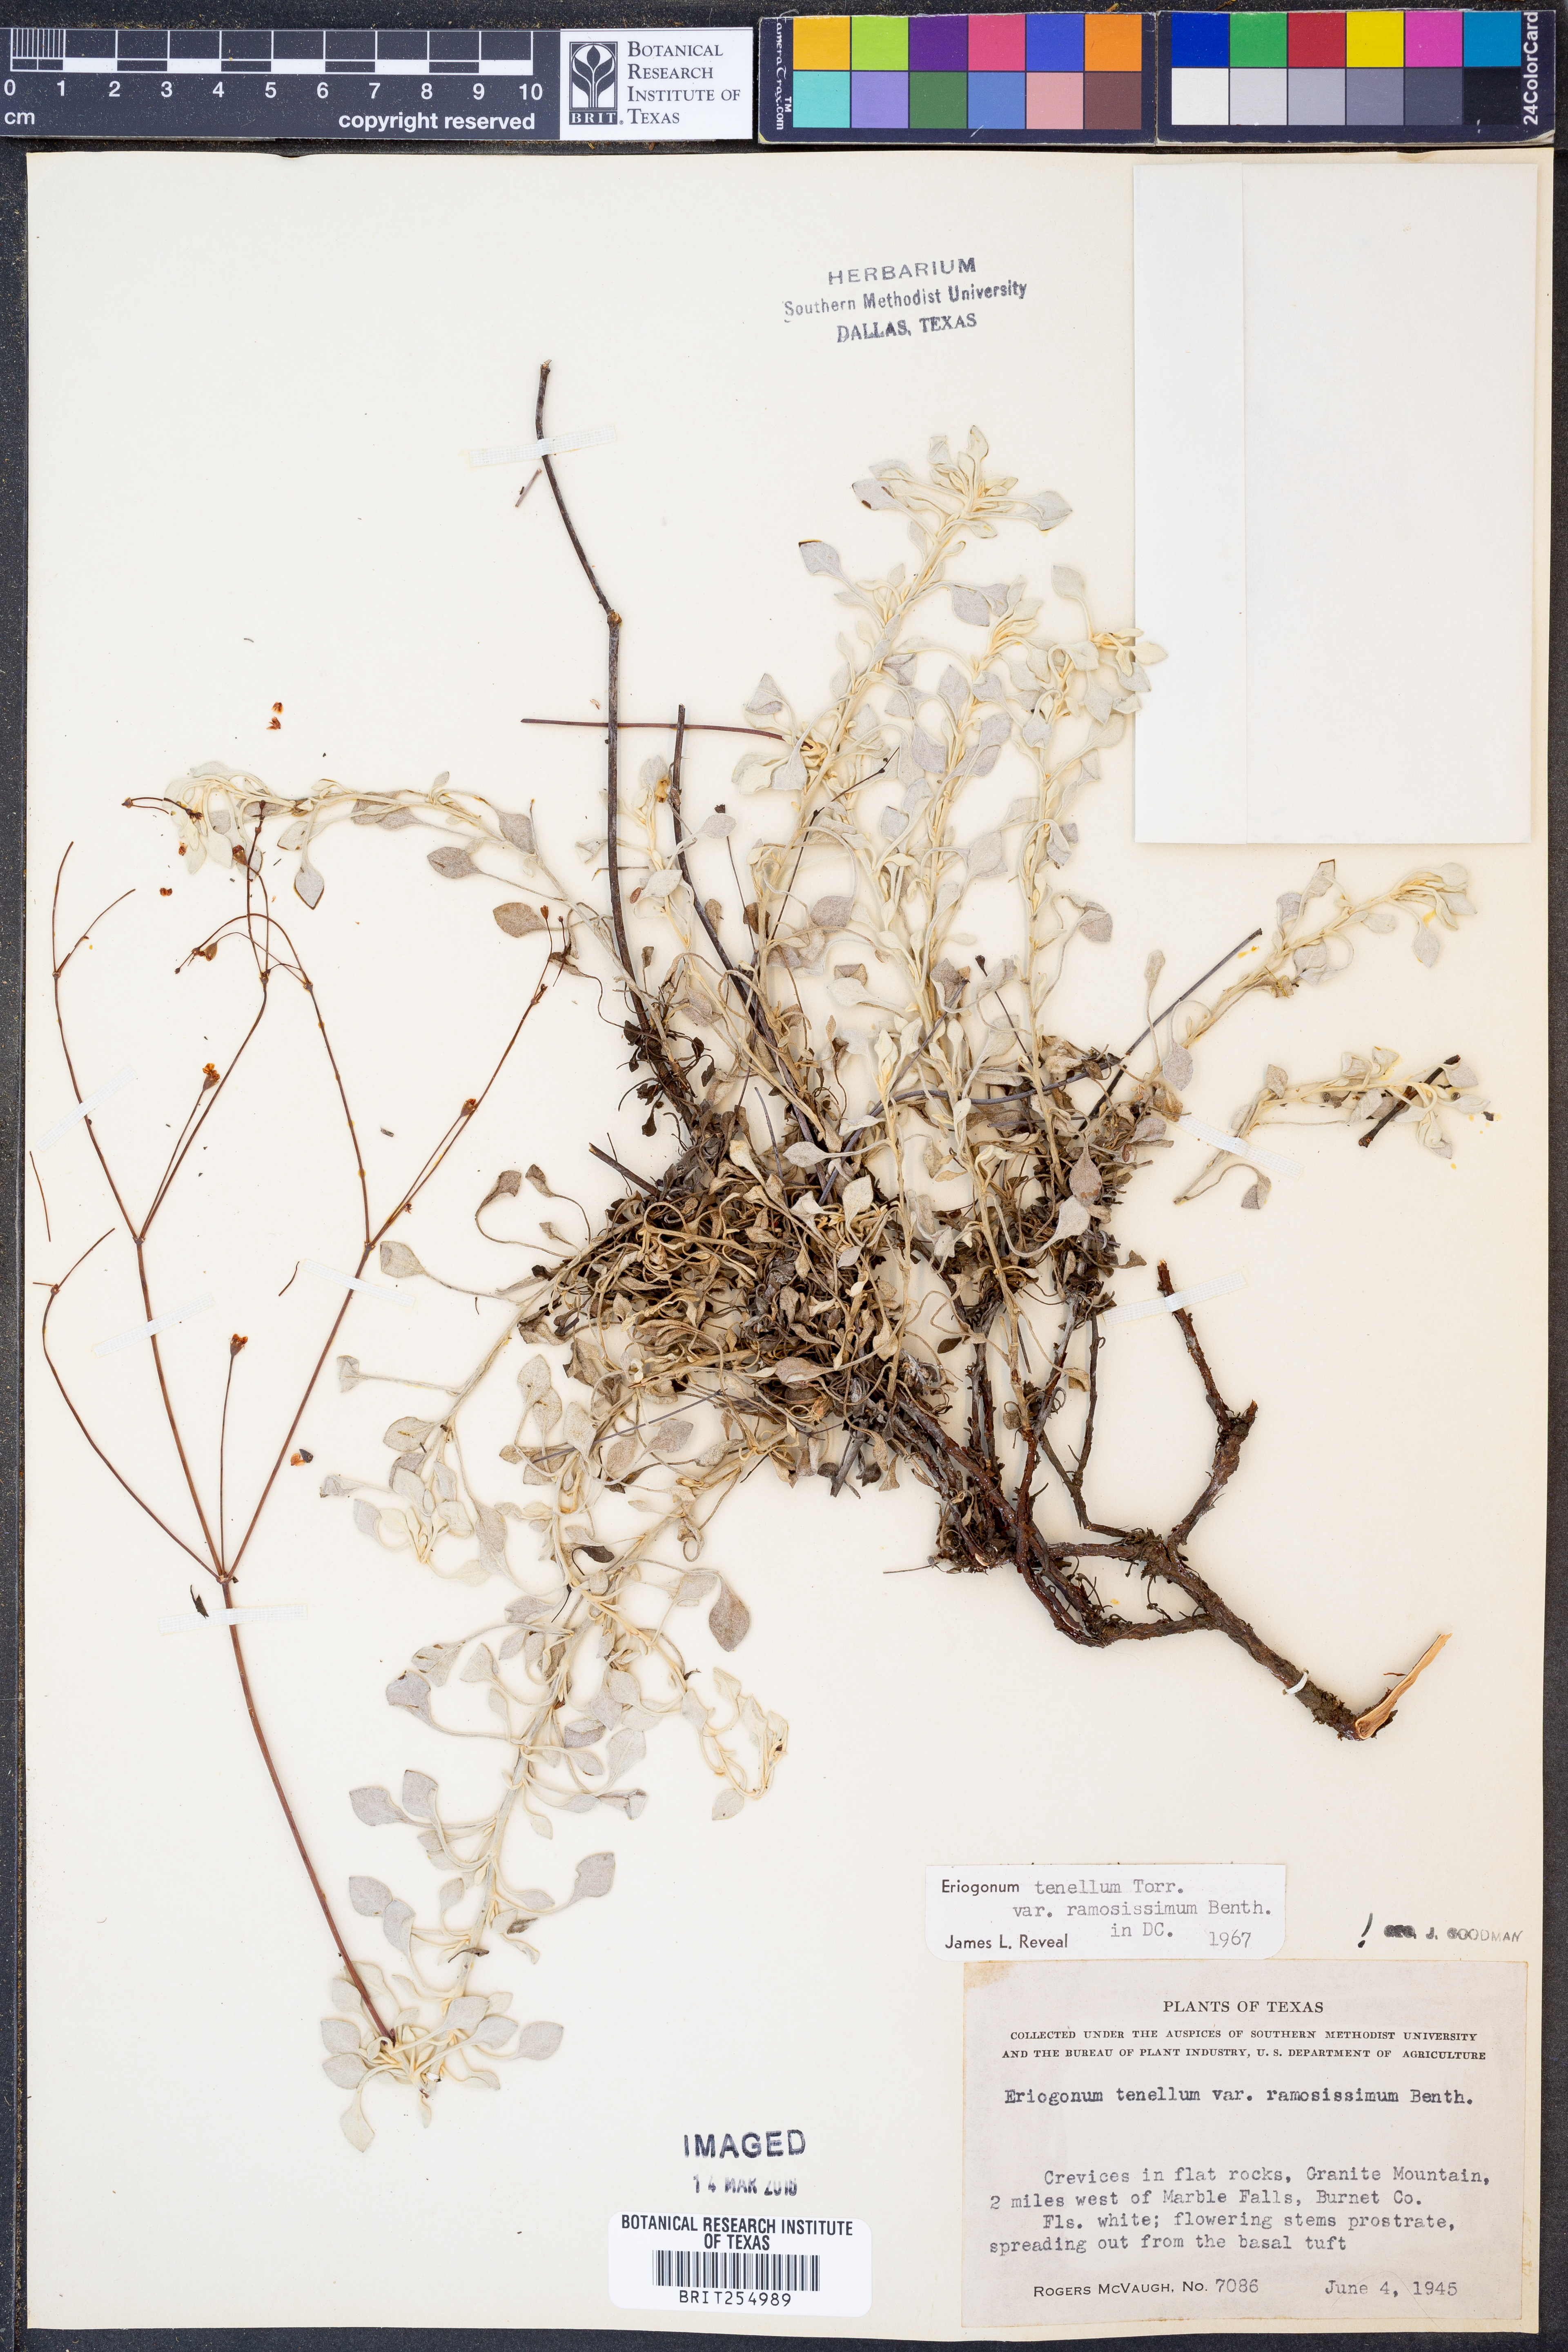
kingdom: Plantae
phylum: Tracheophyta
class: Magnoliopsida
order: Caryophyllales
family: Polygonaceae
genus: Eriogonum
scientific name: Eriogonum graniticum
